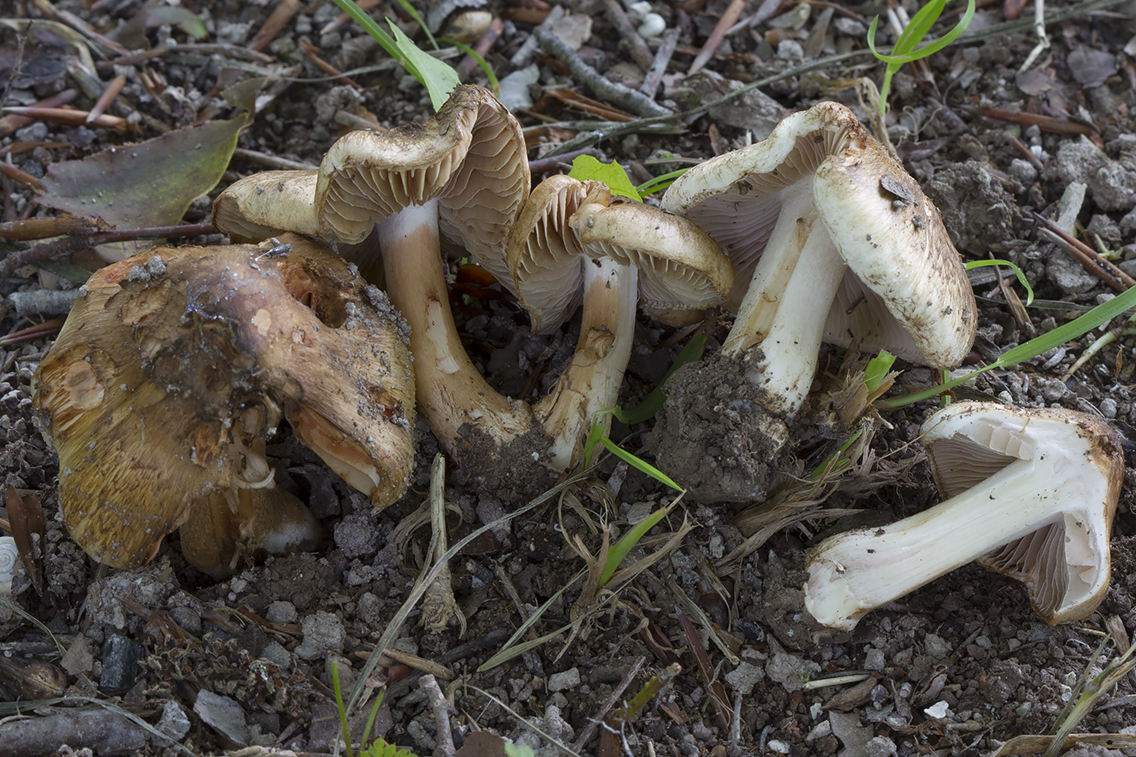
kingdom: Fungi
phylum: Basidiomycota
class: Agaricomycetes
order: Agaricales
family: Inocybaceae
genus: Inocybe
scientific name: Inocybe incarnata
